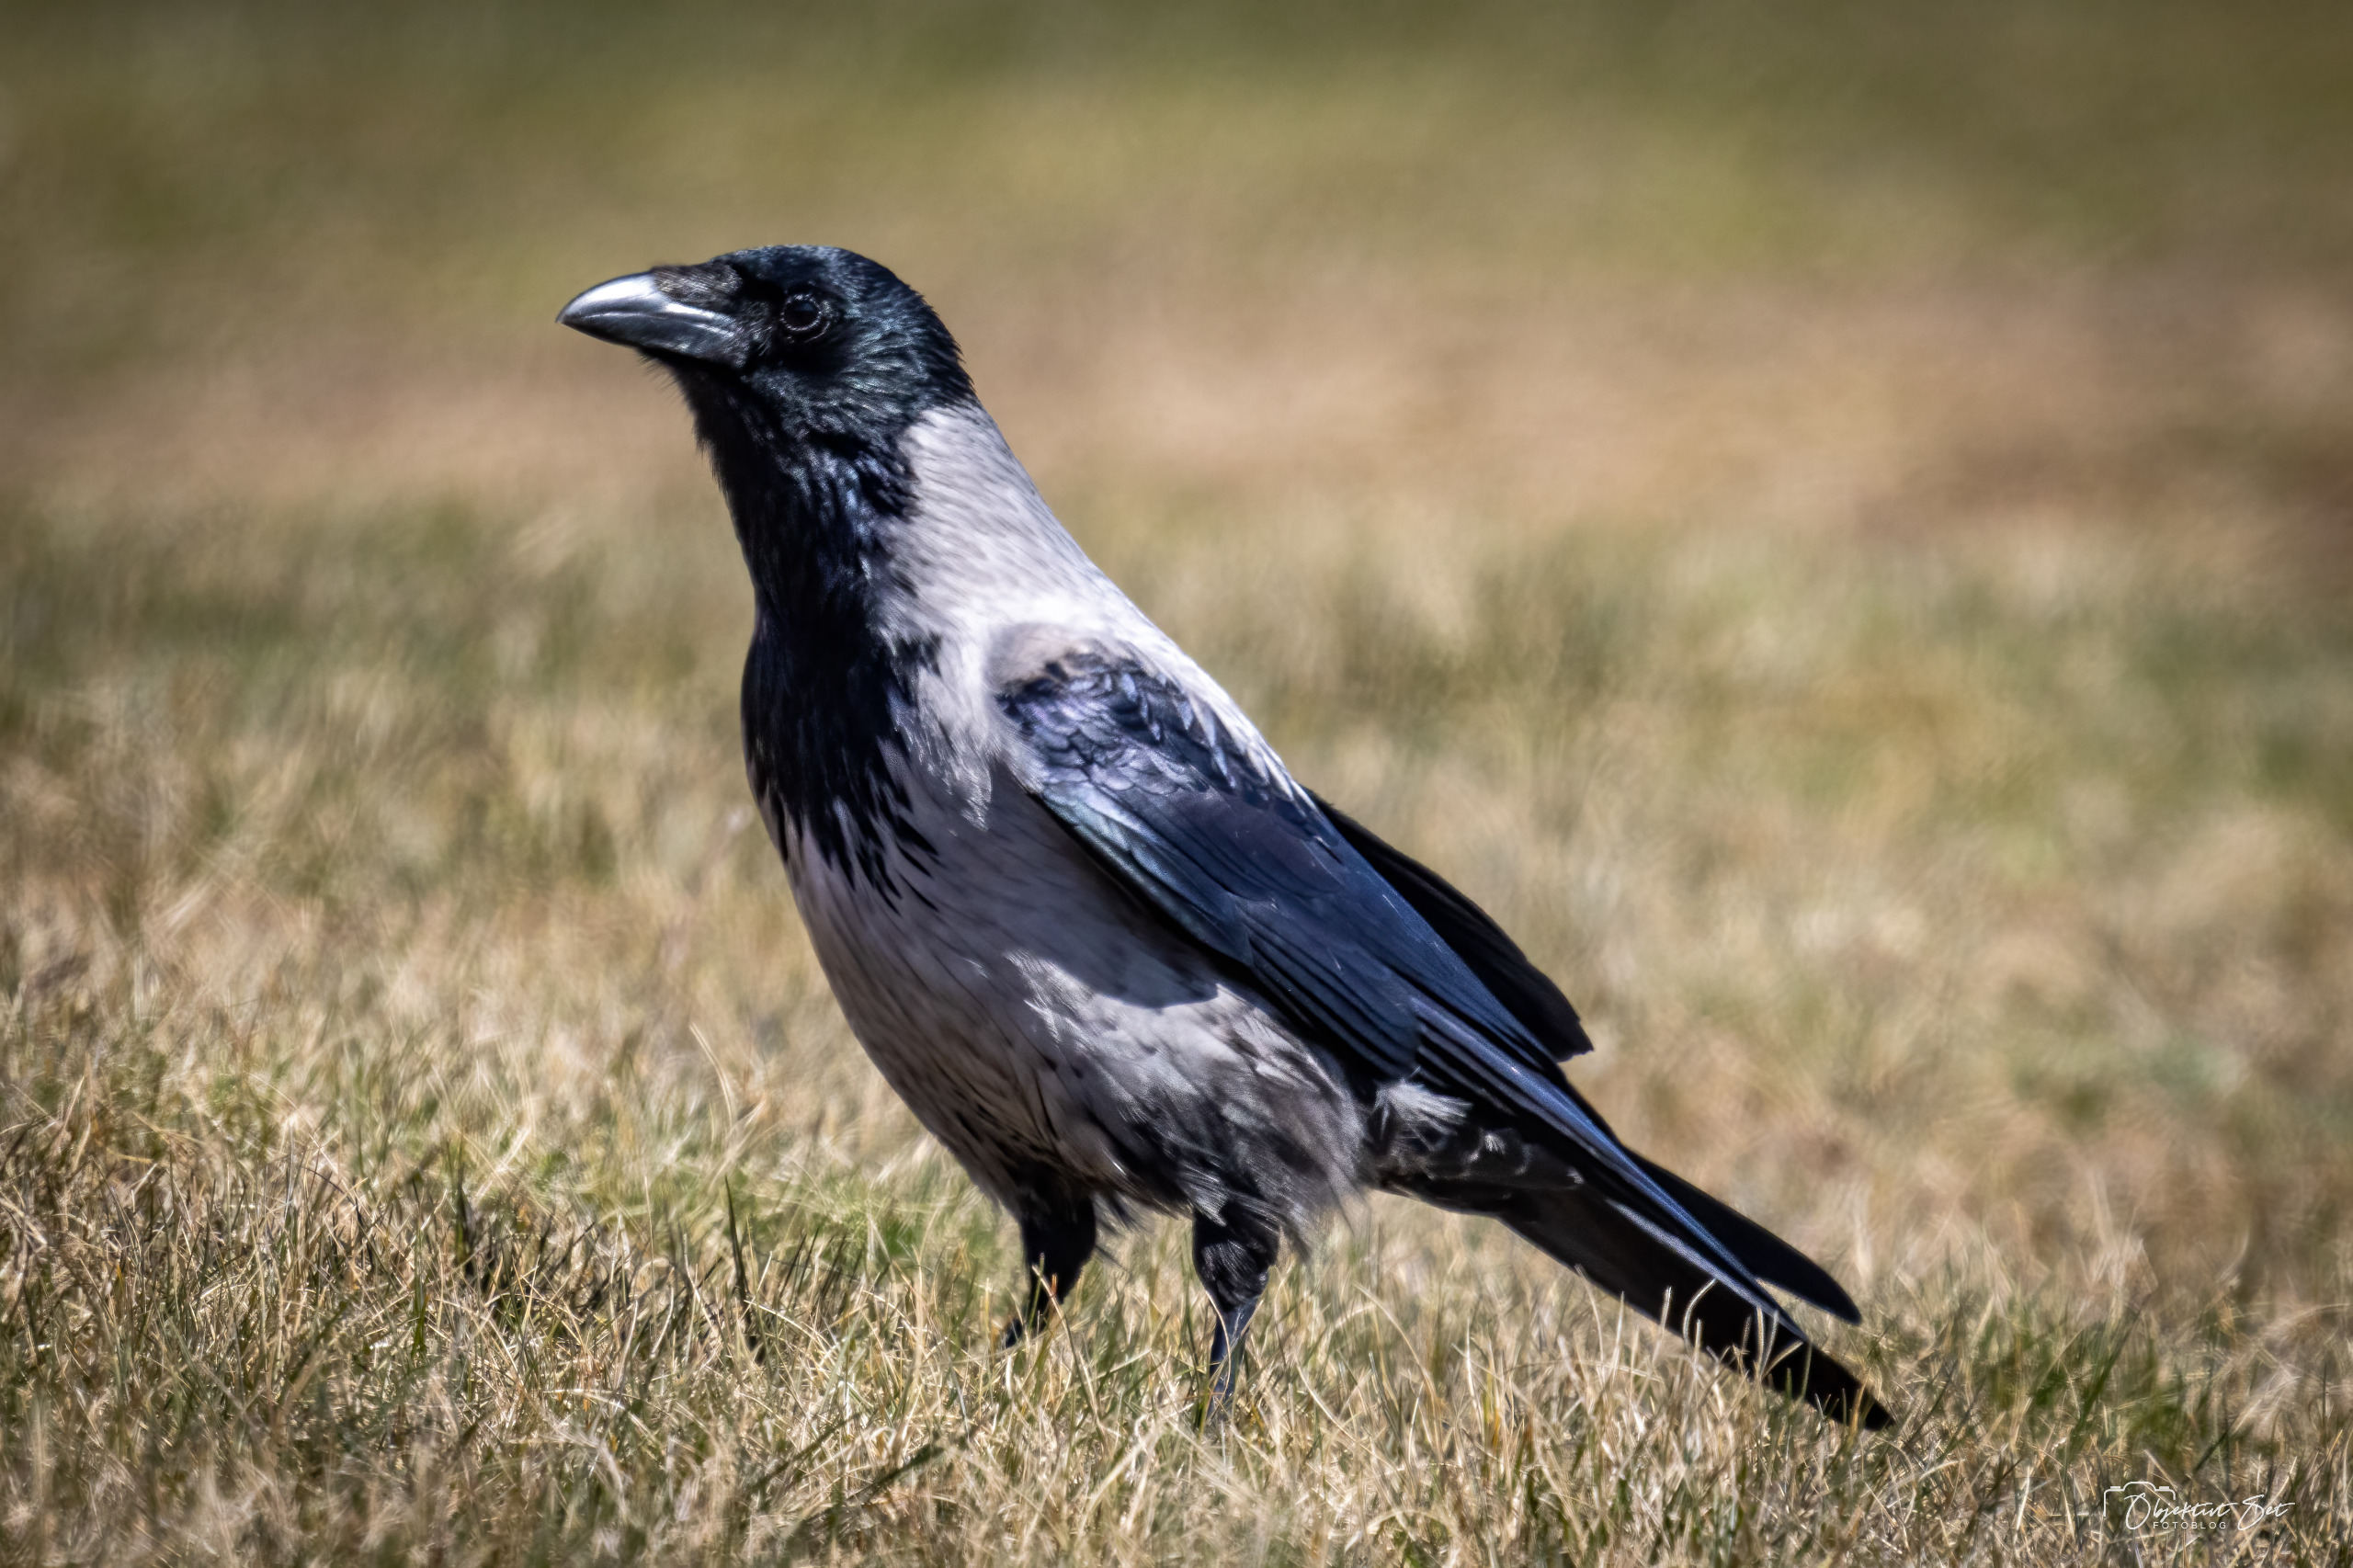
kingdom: Animalia
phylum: Chordata
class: Aves
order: Passeriformes
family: Corvidae
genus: Corvus
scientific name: Corvus cornix
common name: Gråkrage
